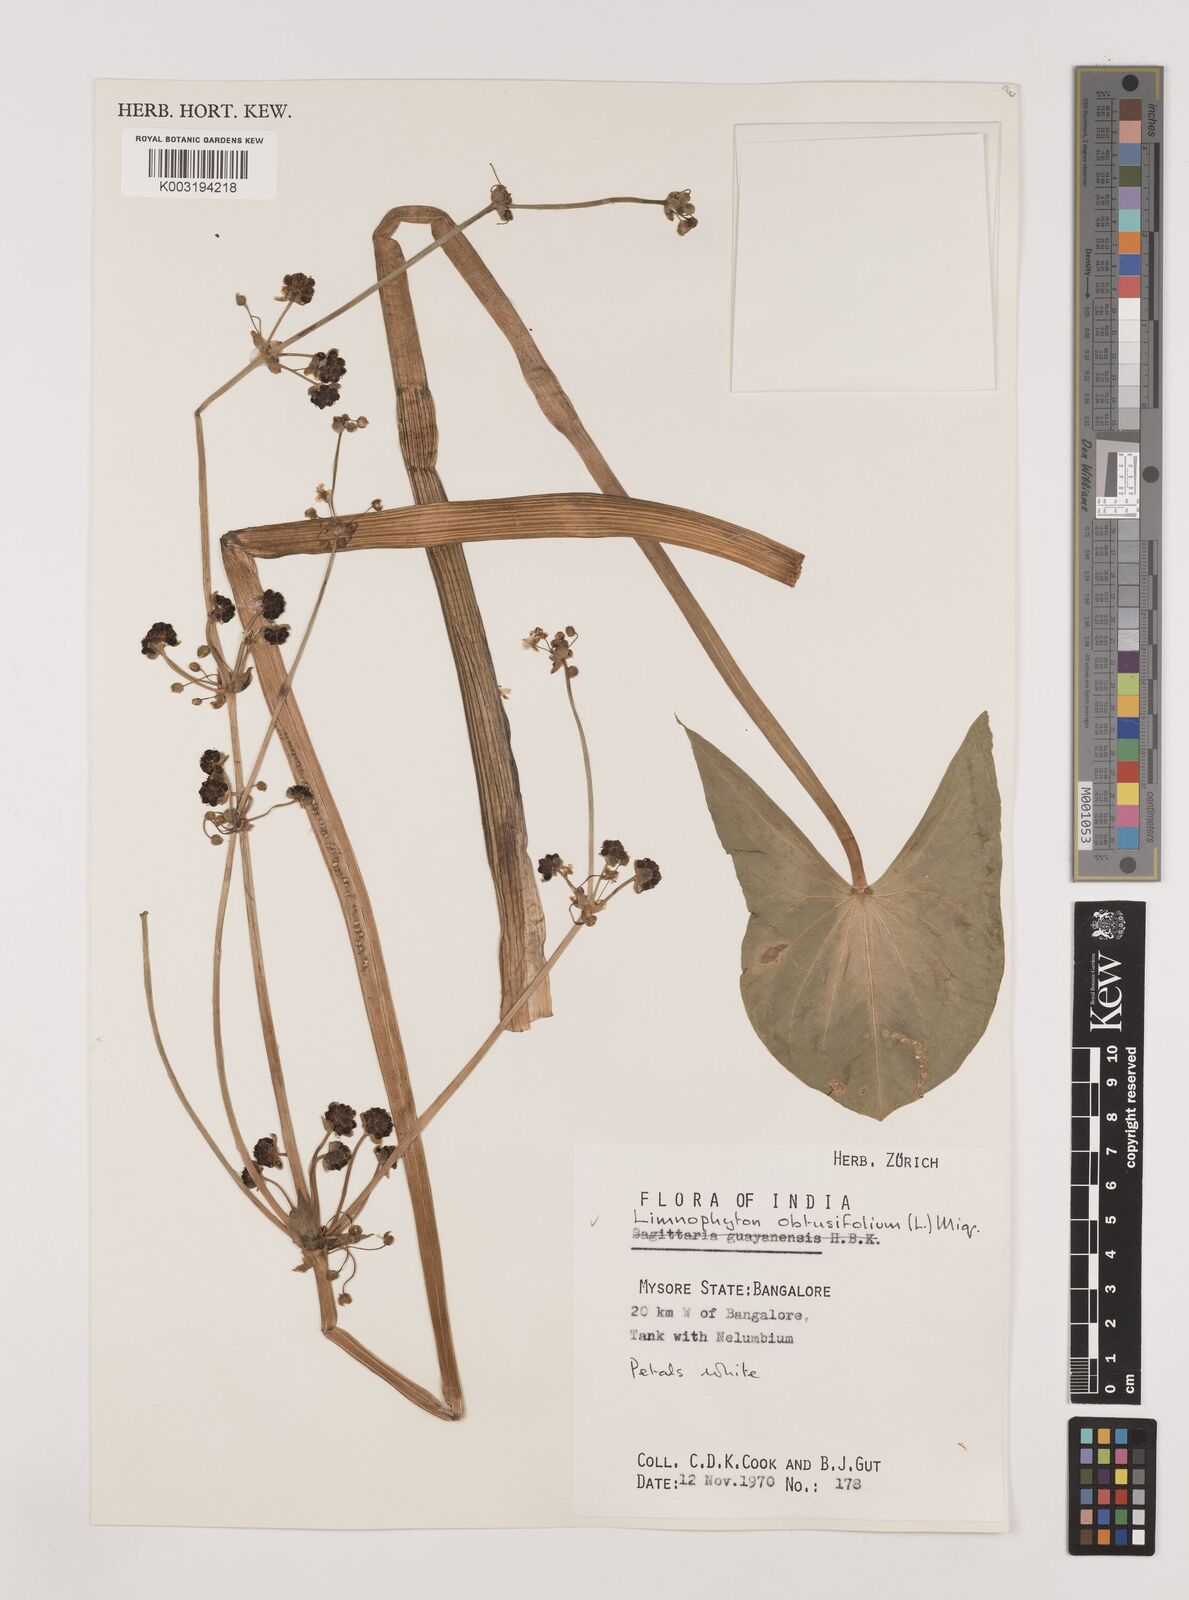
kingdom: Plantae
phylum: Tracheophyta
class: Liliopsida
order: Alismatales
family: Alismataceae
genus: Limnophyton
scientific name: Limnophyton obtusifolium
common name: Arrow head
